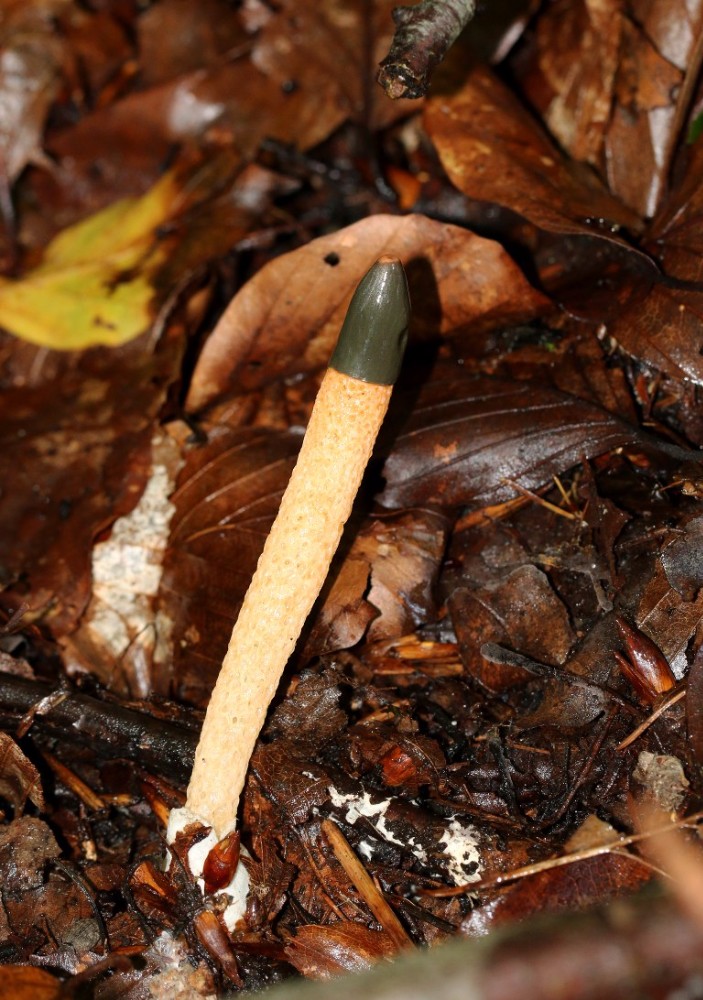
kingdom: Fungi
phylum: Basidiomycota
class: Agaricomycetes
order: Phallales
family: Phallaceae
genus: Mutinus
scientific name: Mutinus caninus
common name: hunde-stinksvamp
